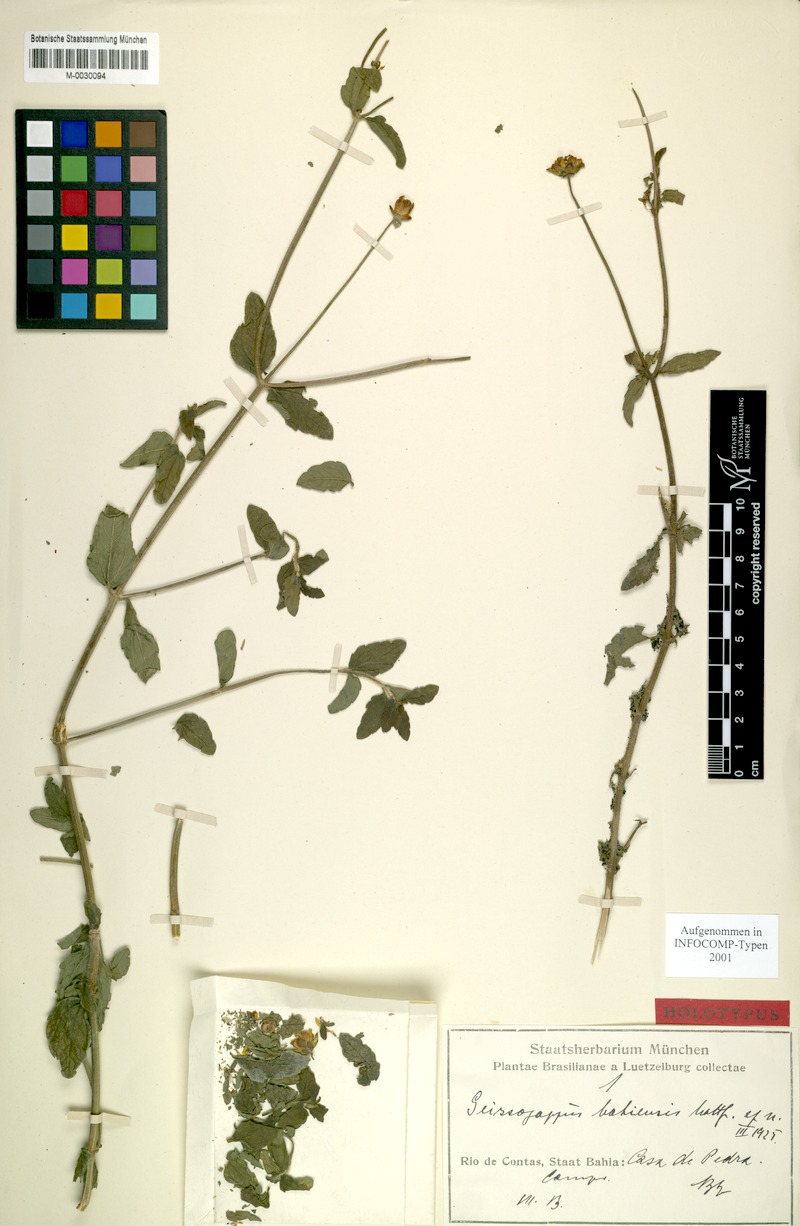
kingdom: Plantae
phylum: Tracheophyta
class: Magnoliopsida
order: Asterales
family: Asteraceae
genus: Calea
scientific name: Calea bahiensis
